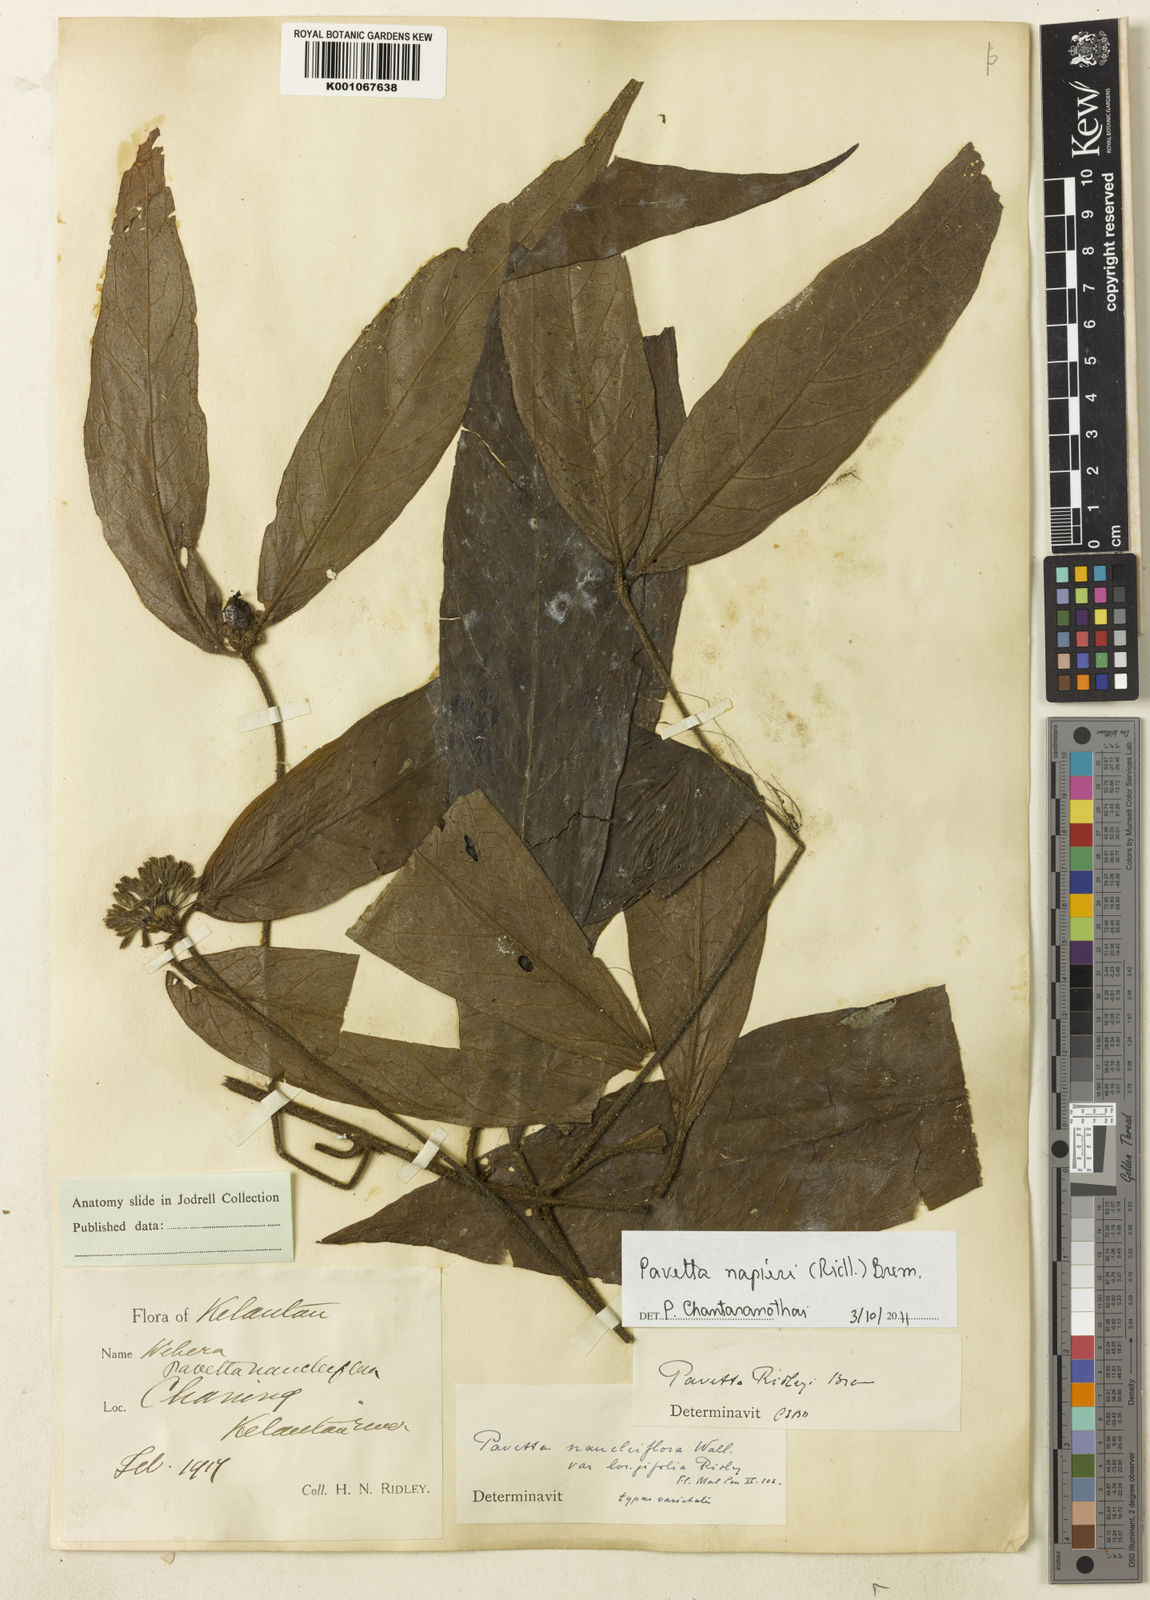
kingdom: Plantae
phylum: Tracheophyta
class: Magnoliopsida
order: Gentianales
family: Rubiaceae
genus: Pavetta
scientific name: Pavetta napieri
